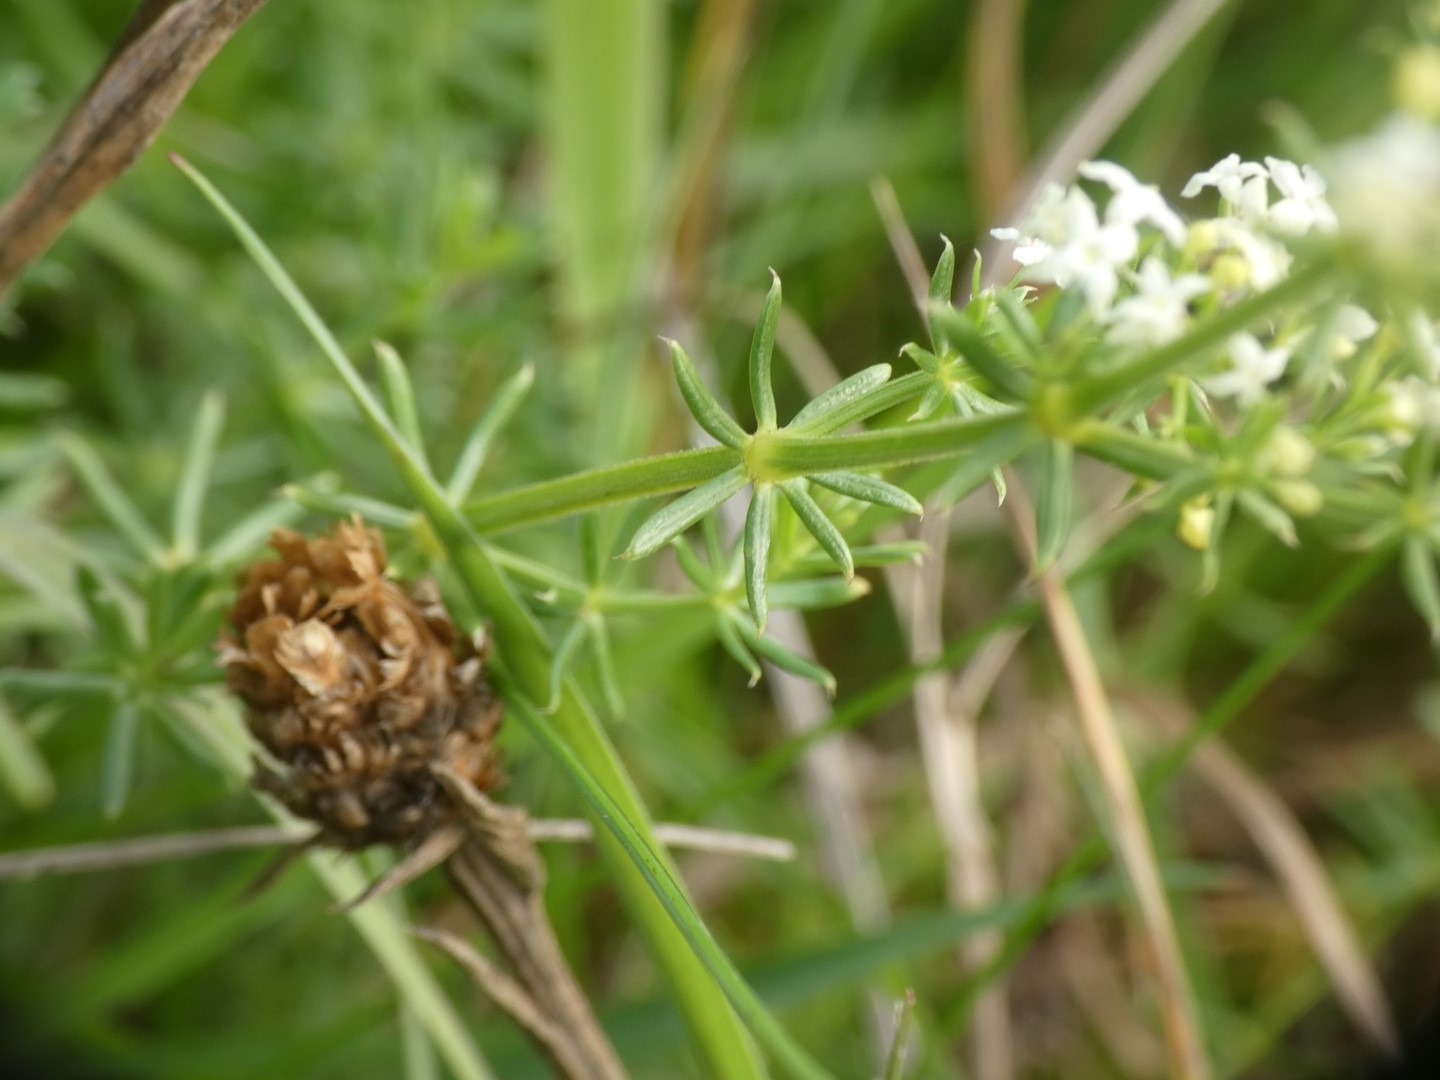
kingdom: Plantae
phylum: Tracheophyta
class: Magnoliopsida
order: Gentianales
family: Rubiaceae
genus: Galium
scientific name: Galium mollugo
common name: Hvid snerre
